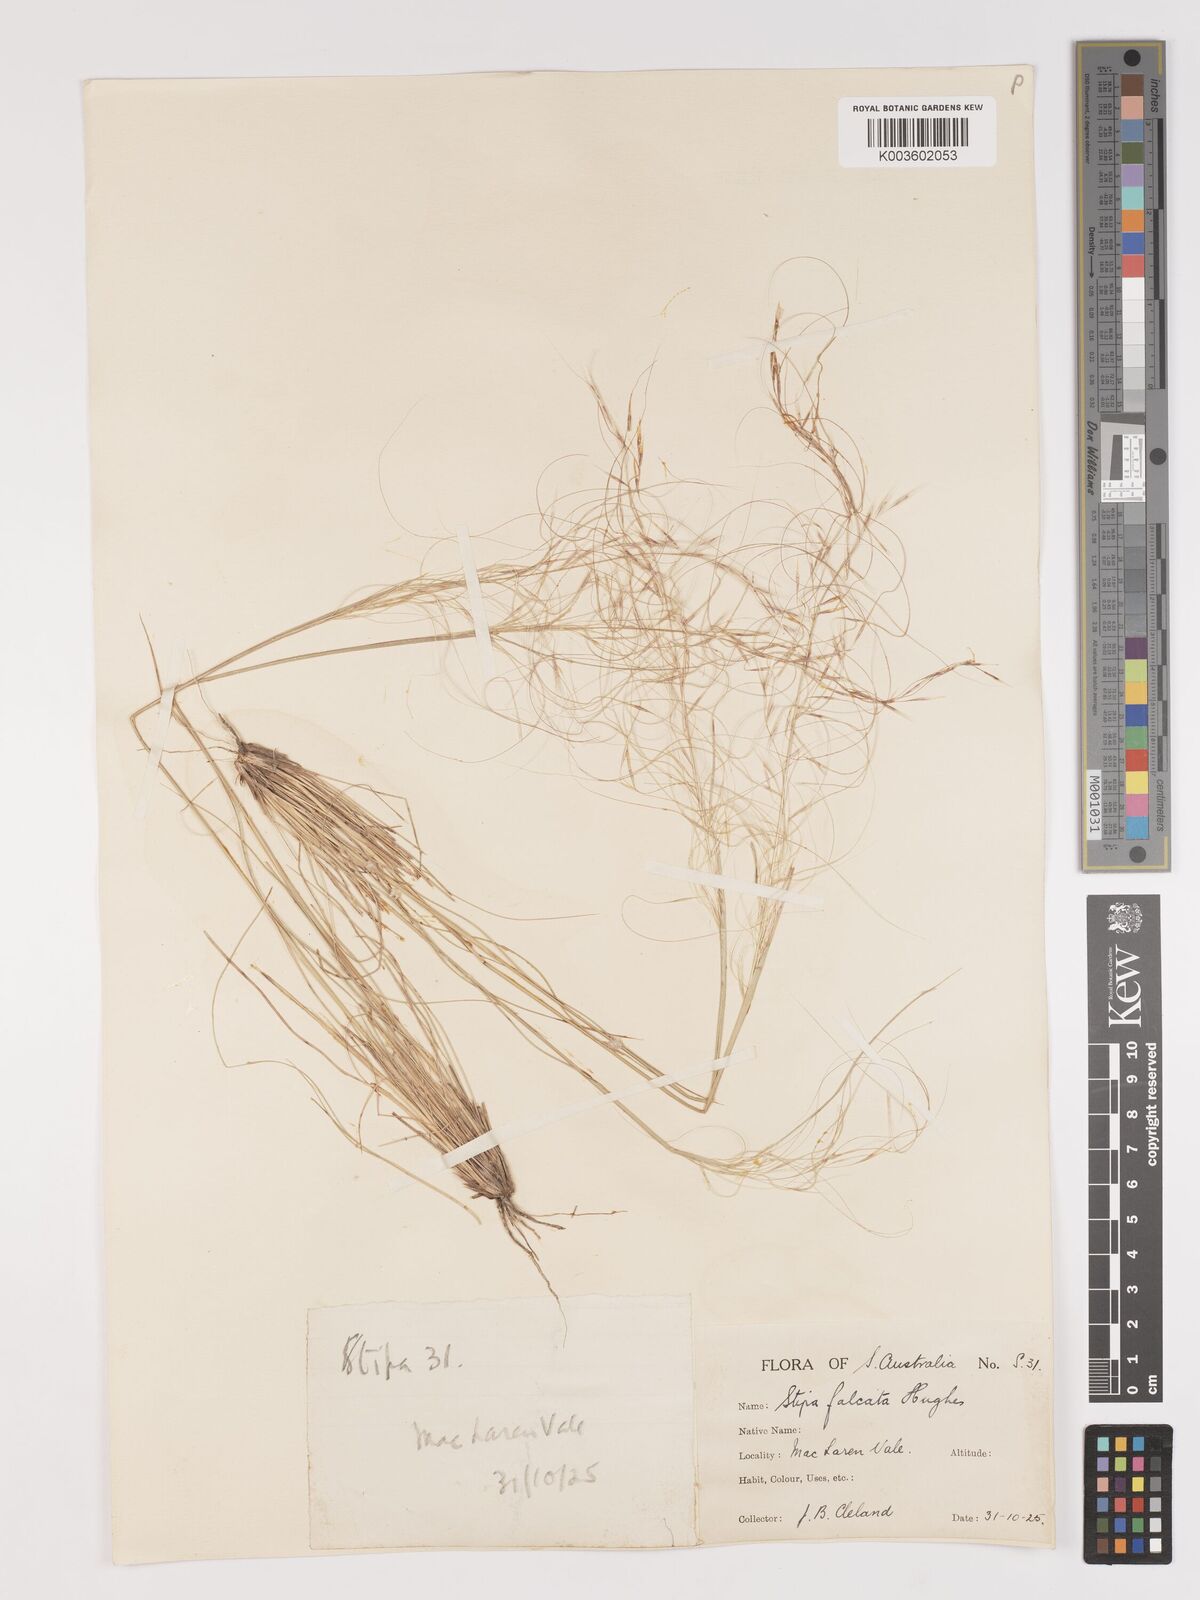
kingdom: Plantae
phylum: Tracheophyta
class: Liliopsida
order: Poales
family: Poaceae
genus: Austrostipa
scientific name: Austrostipa scabra
